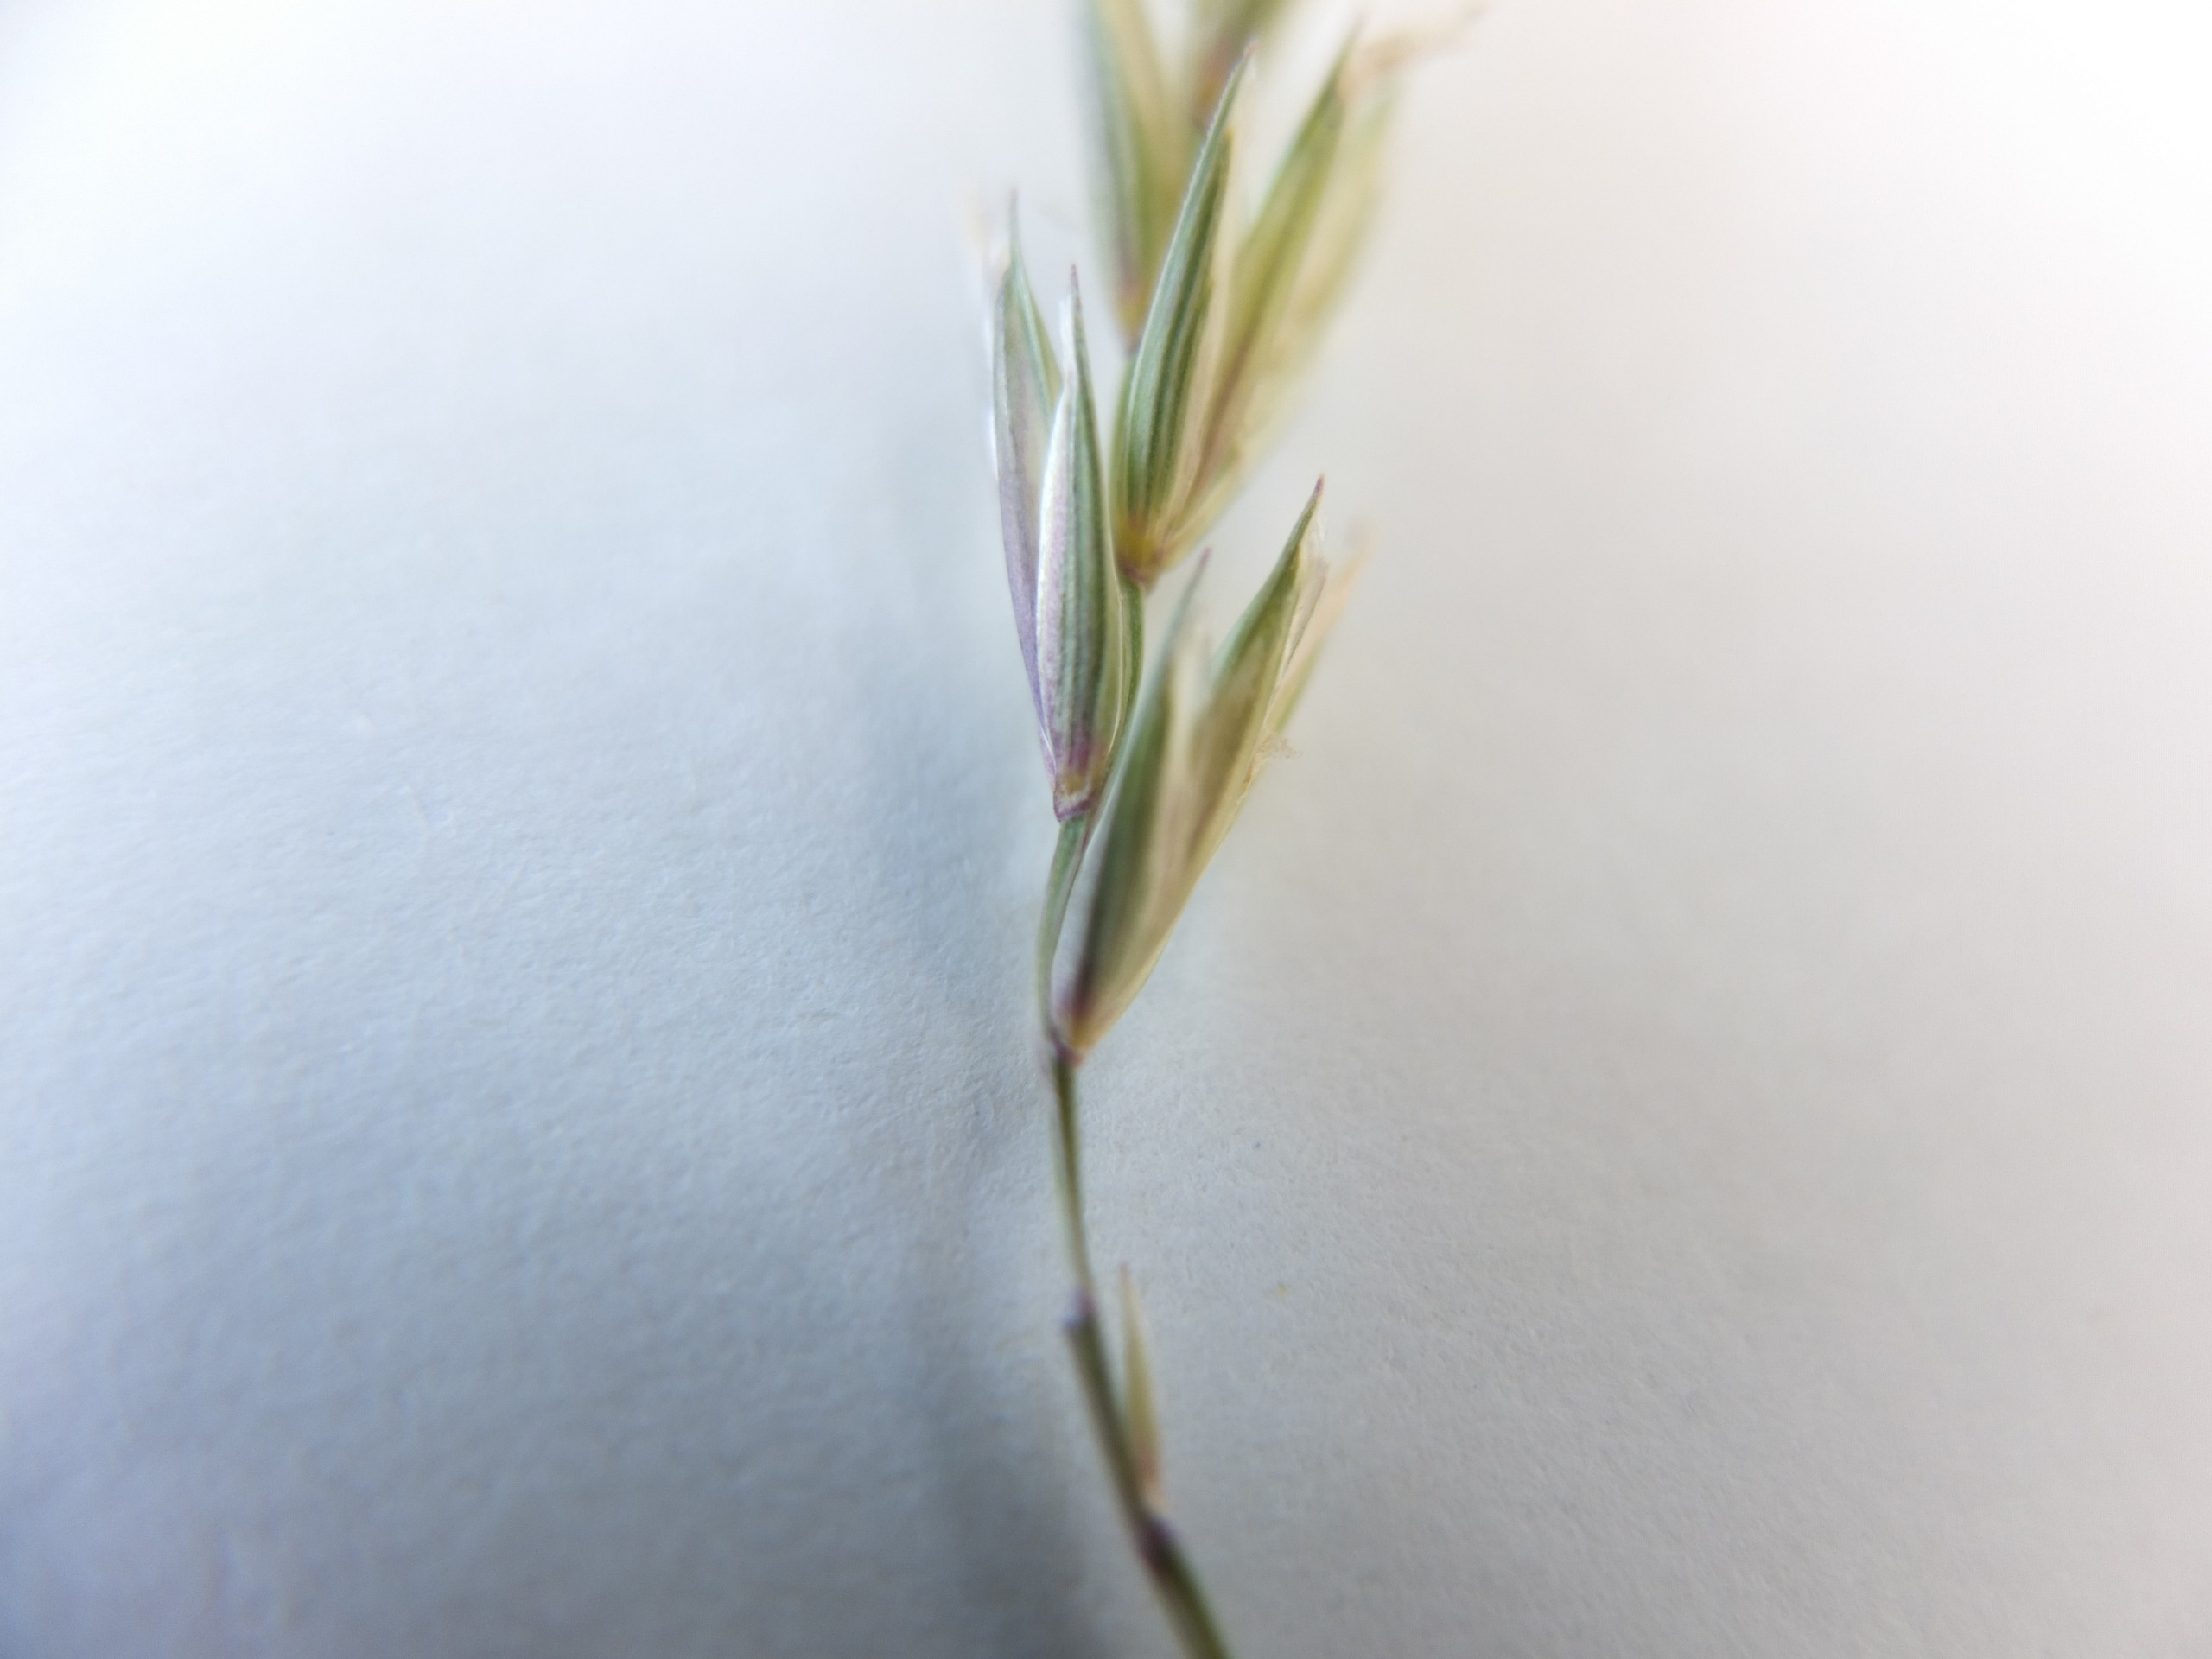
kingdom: Plantae
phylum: Tracheophyta
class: Liliopsida
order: Poales
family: Poaceae
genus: Elymus
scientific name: Elymus repens
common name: Almindelig kvik
